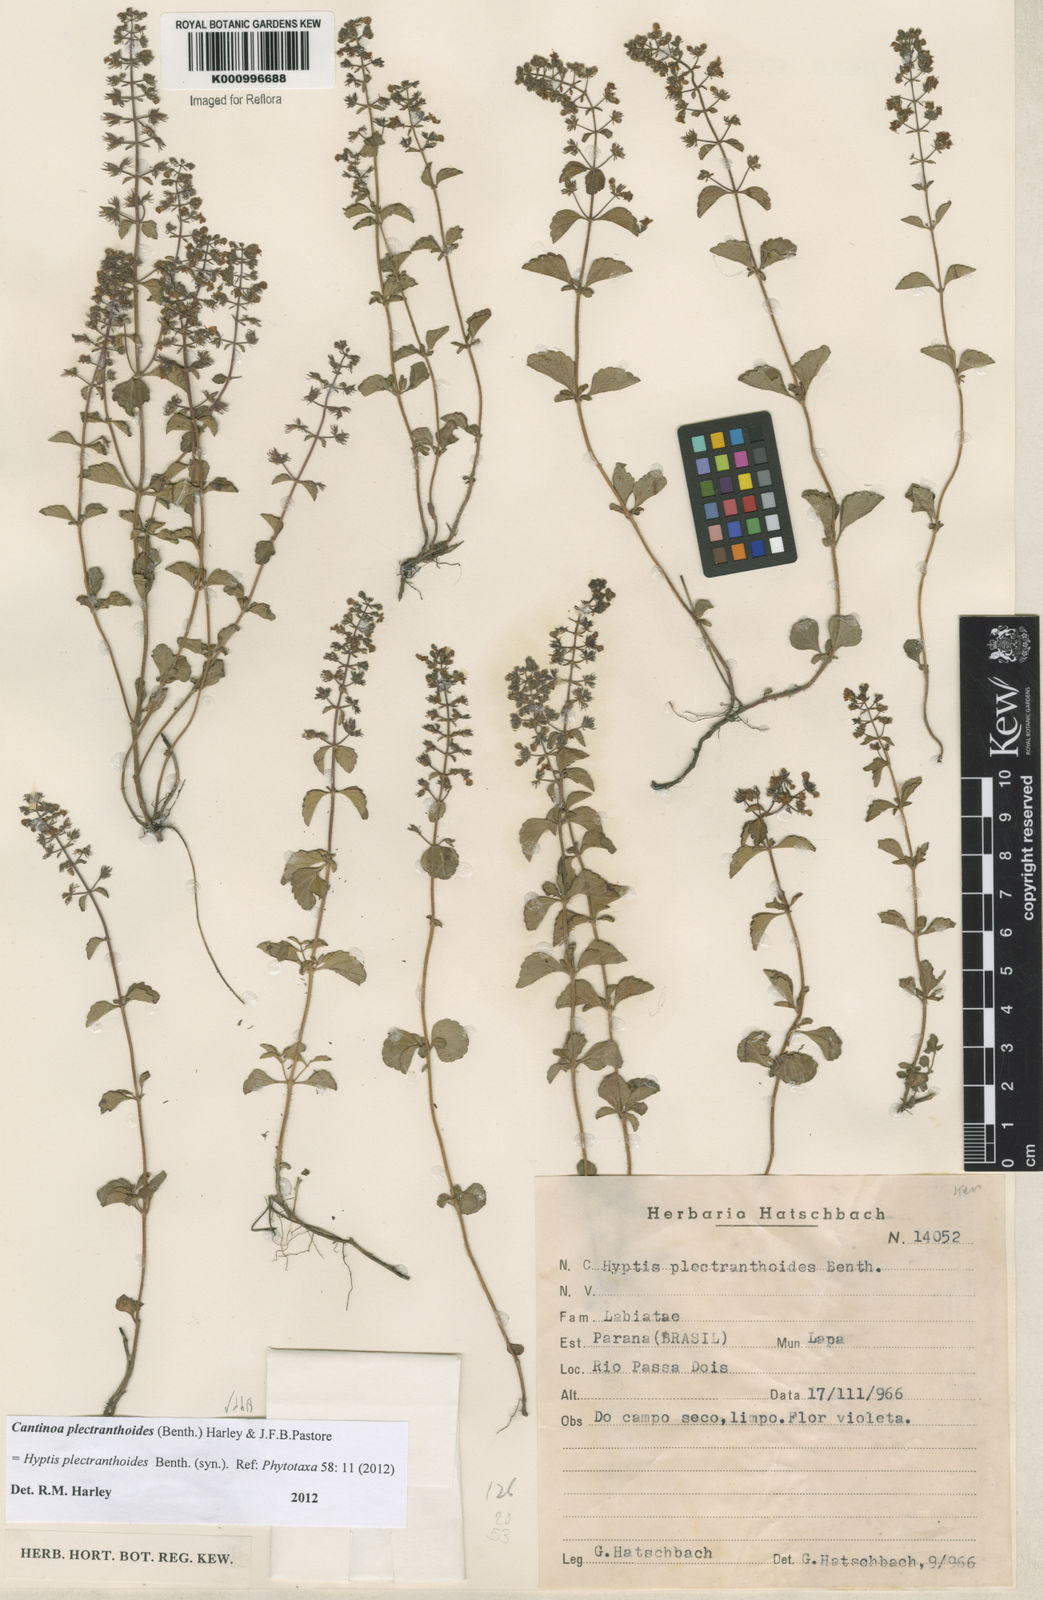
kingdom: Plantae
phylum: Tracheophyta
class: Magnoliopsida
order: Lamiales
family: Lamiaceae
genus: Cantinoa
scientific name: Cantinoa plectranthoides
